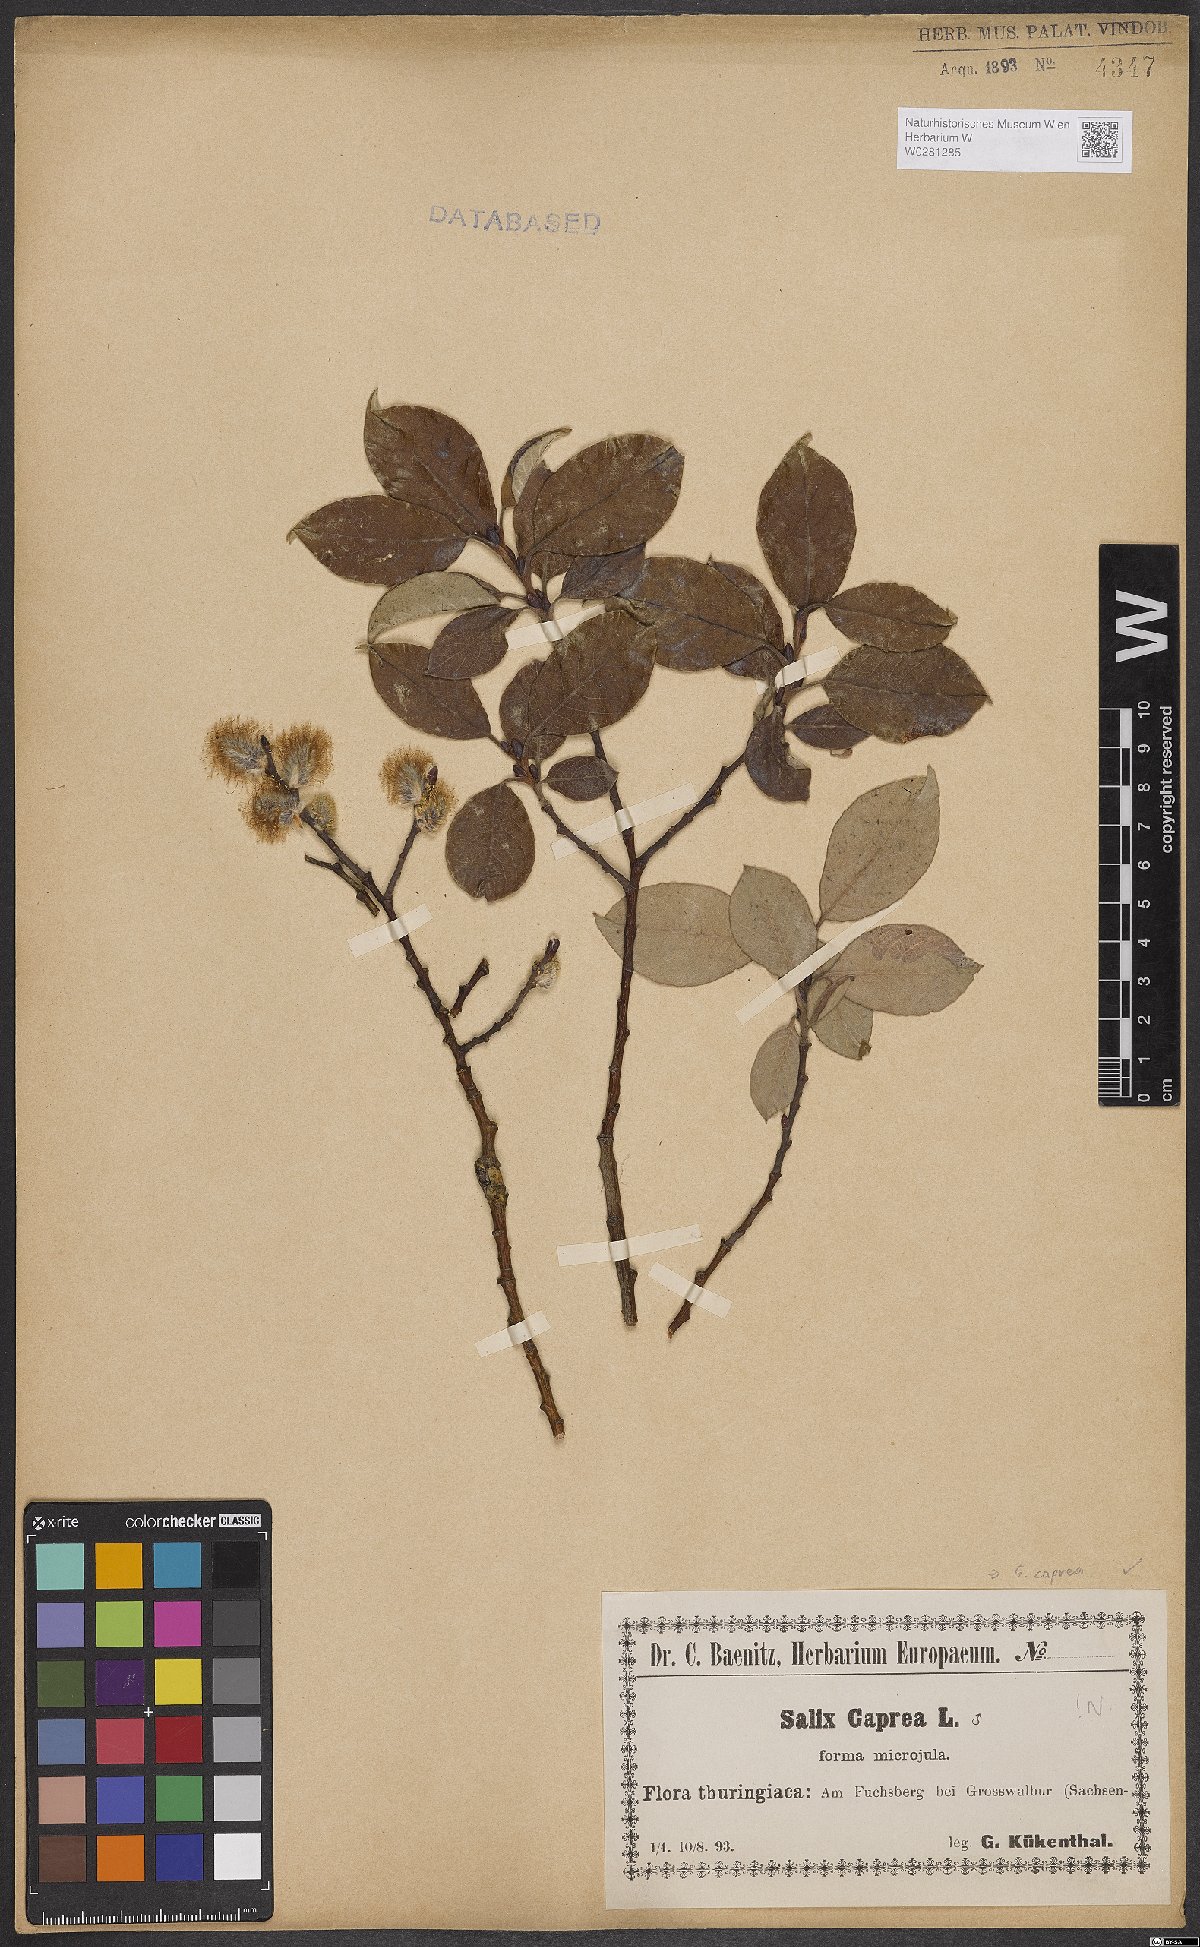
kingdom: Plantae
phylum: Tracheophyta
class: Magnoliopsida
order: Malpighiales
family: Salicaceae
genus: Salix
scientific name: Salix caprea
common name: Goat willow
